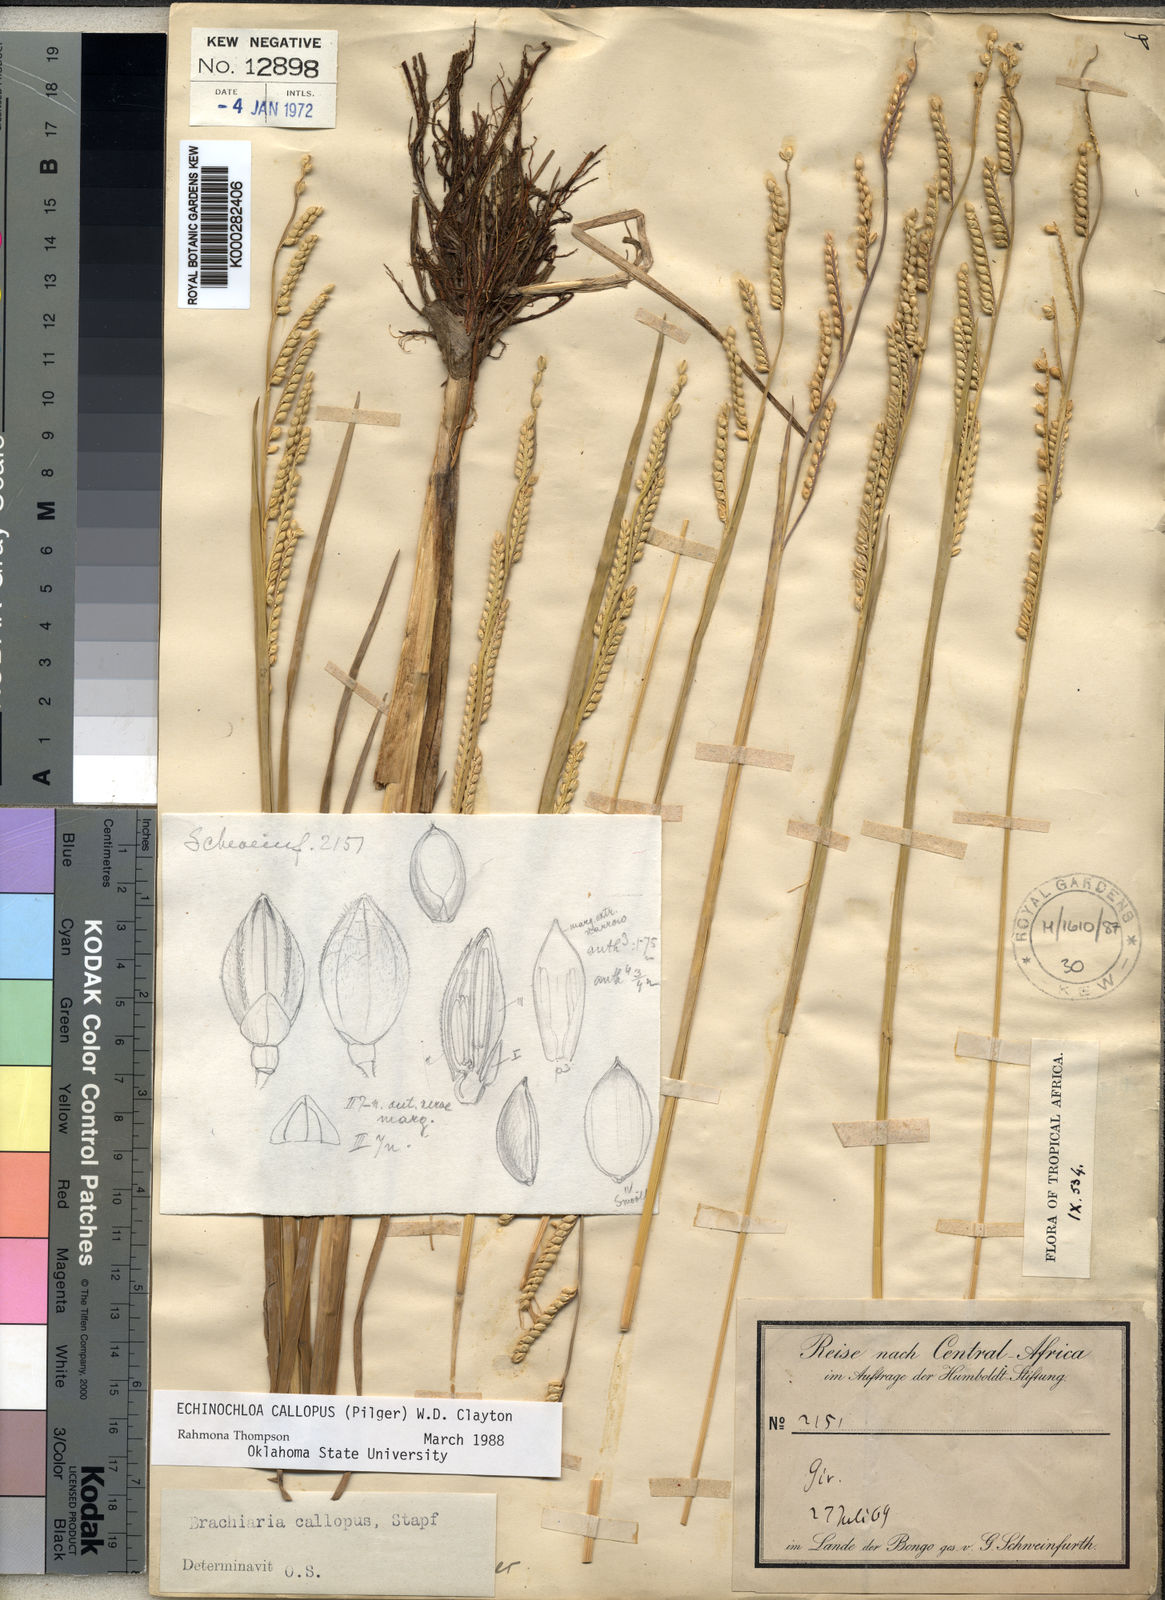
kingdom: Plantae
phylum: Tracheophyta
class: Liliopsida
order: Poales
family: Poaceae
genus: Echinochloa
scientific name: Echinochloa callopus
